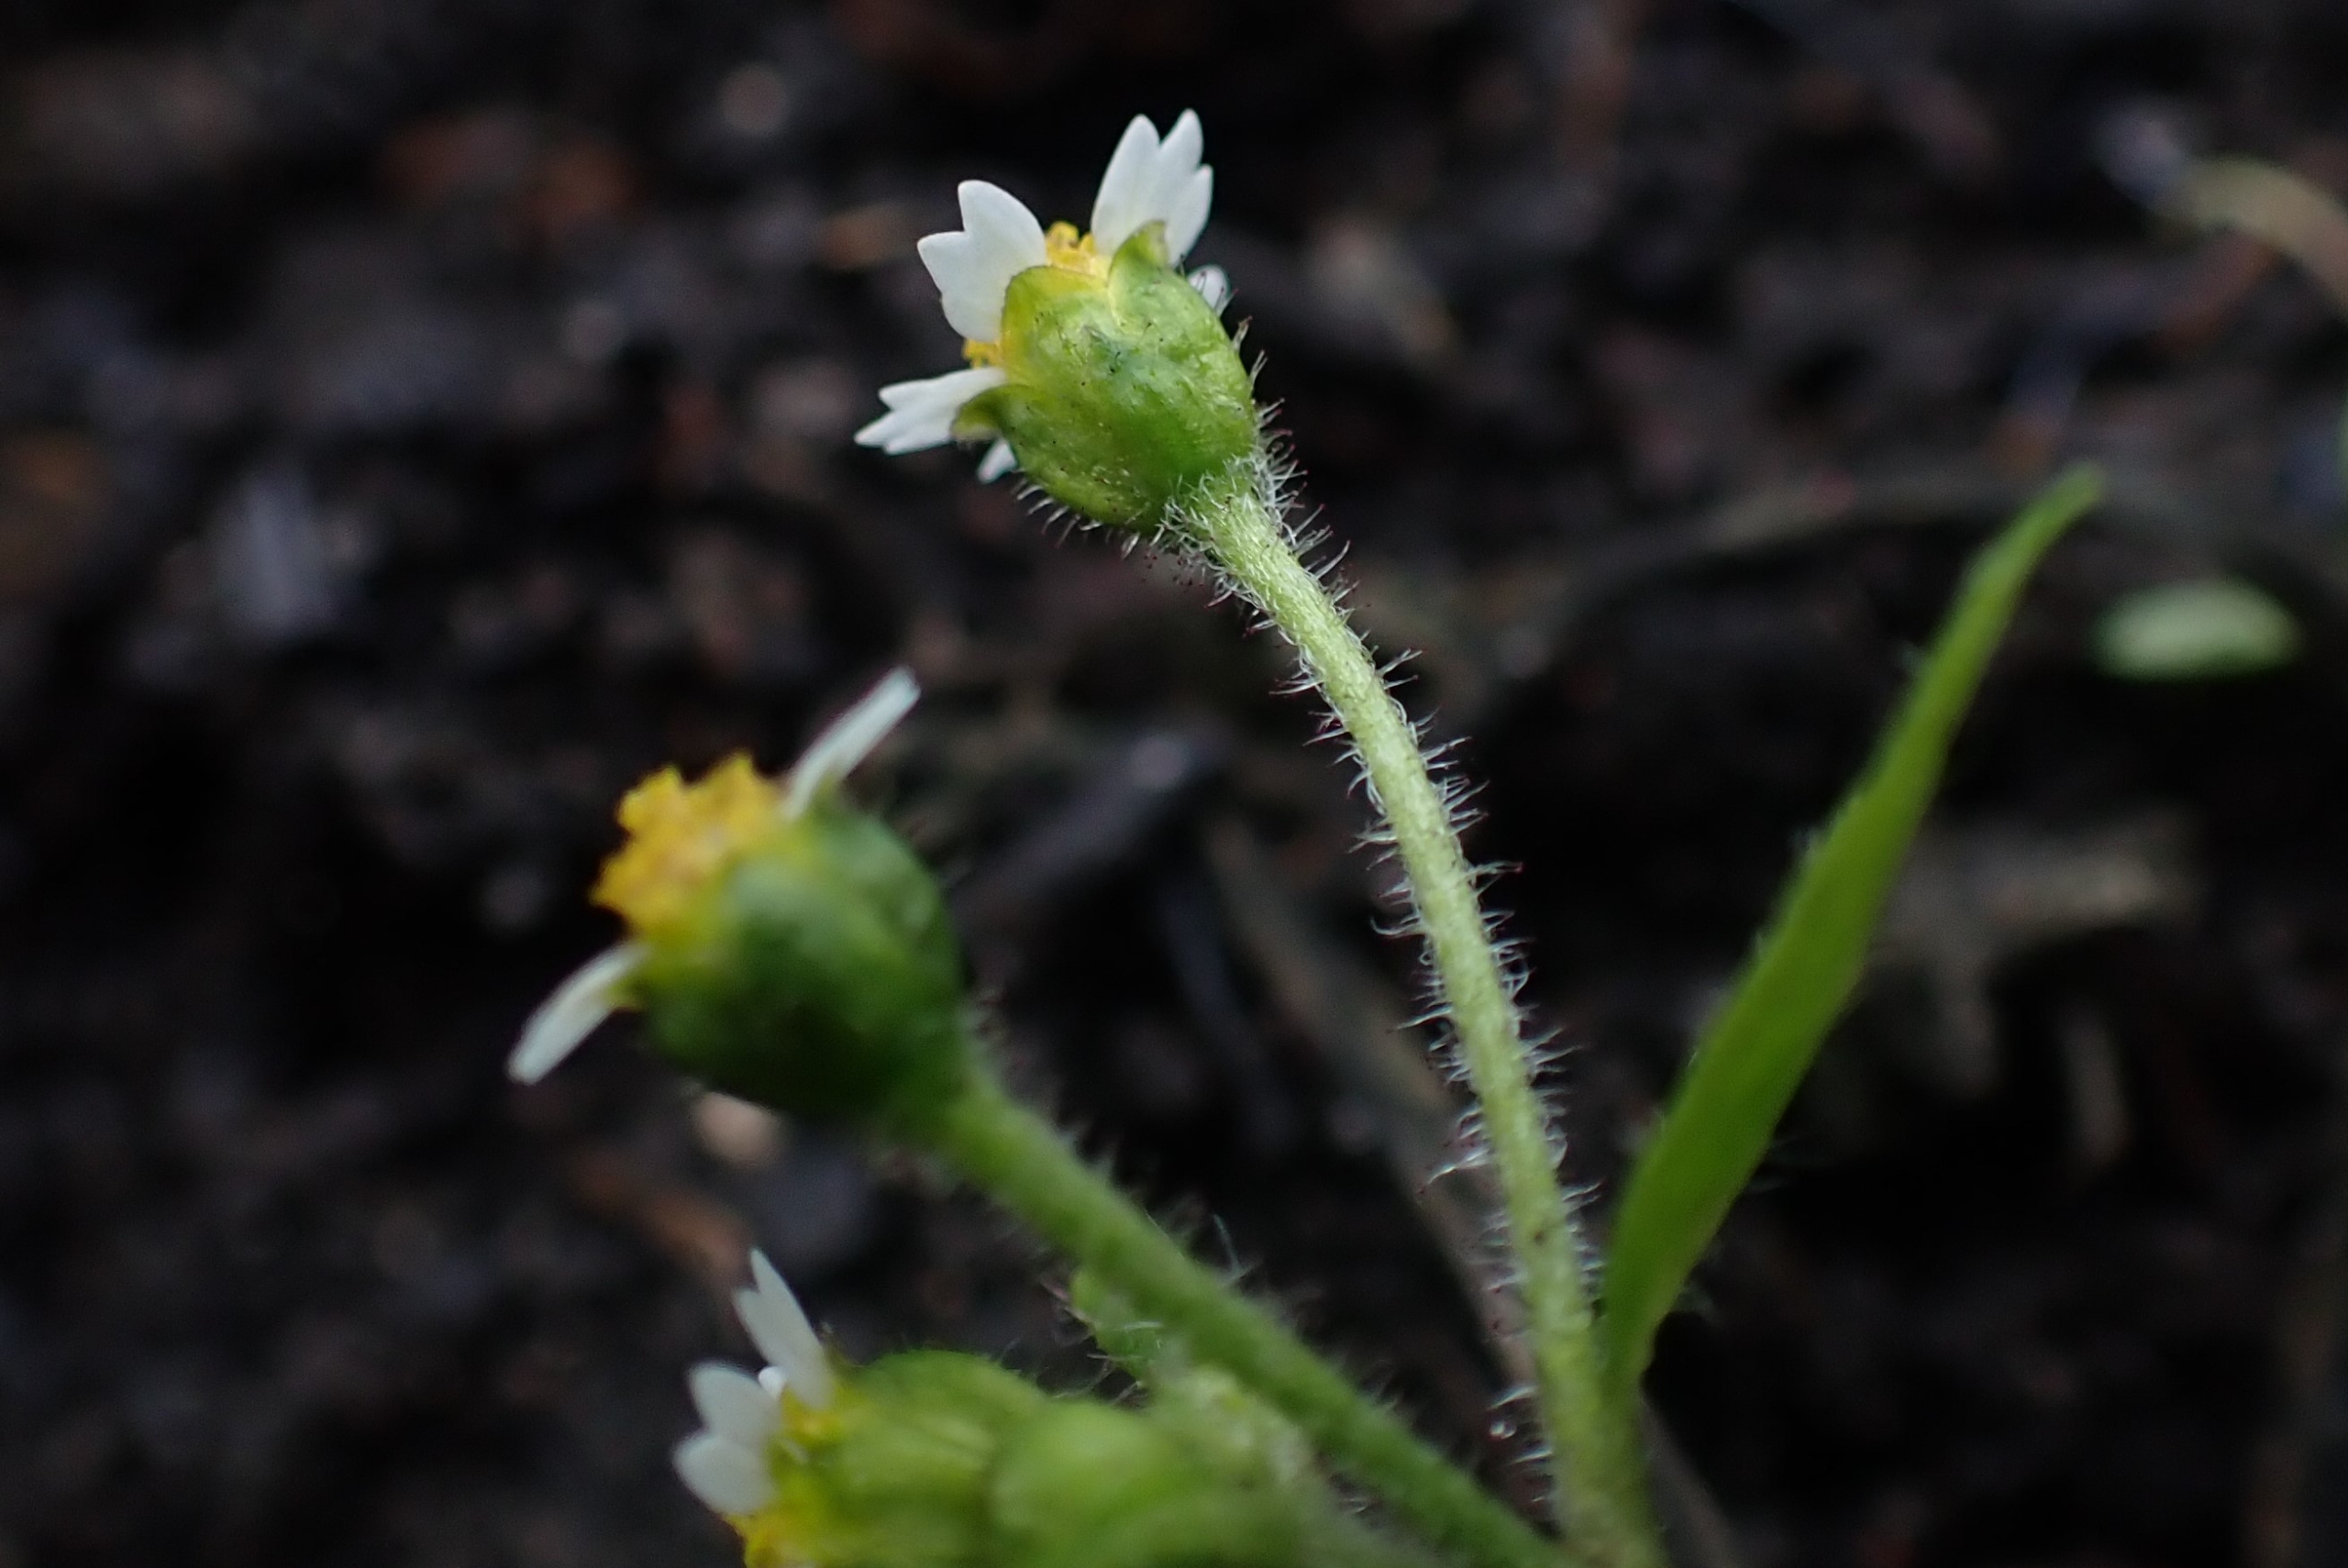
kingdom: Plantae
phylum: Tracheophyta
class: Magnoliopsida
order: Asterales
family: Asteraceae
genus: Galinsoga
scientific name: Galinsoga quadriradiata
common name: Kirtel-kortstråle
